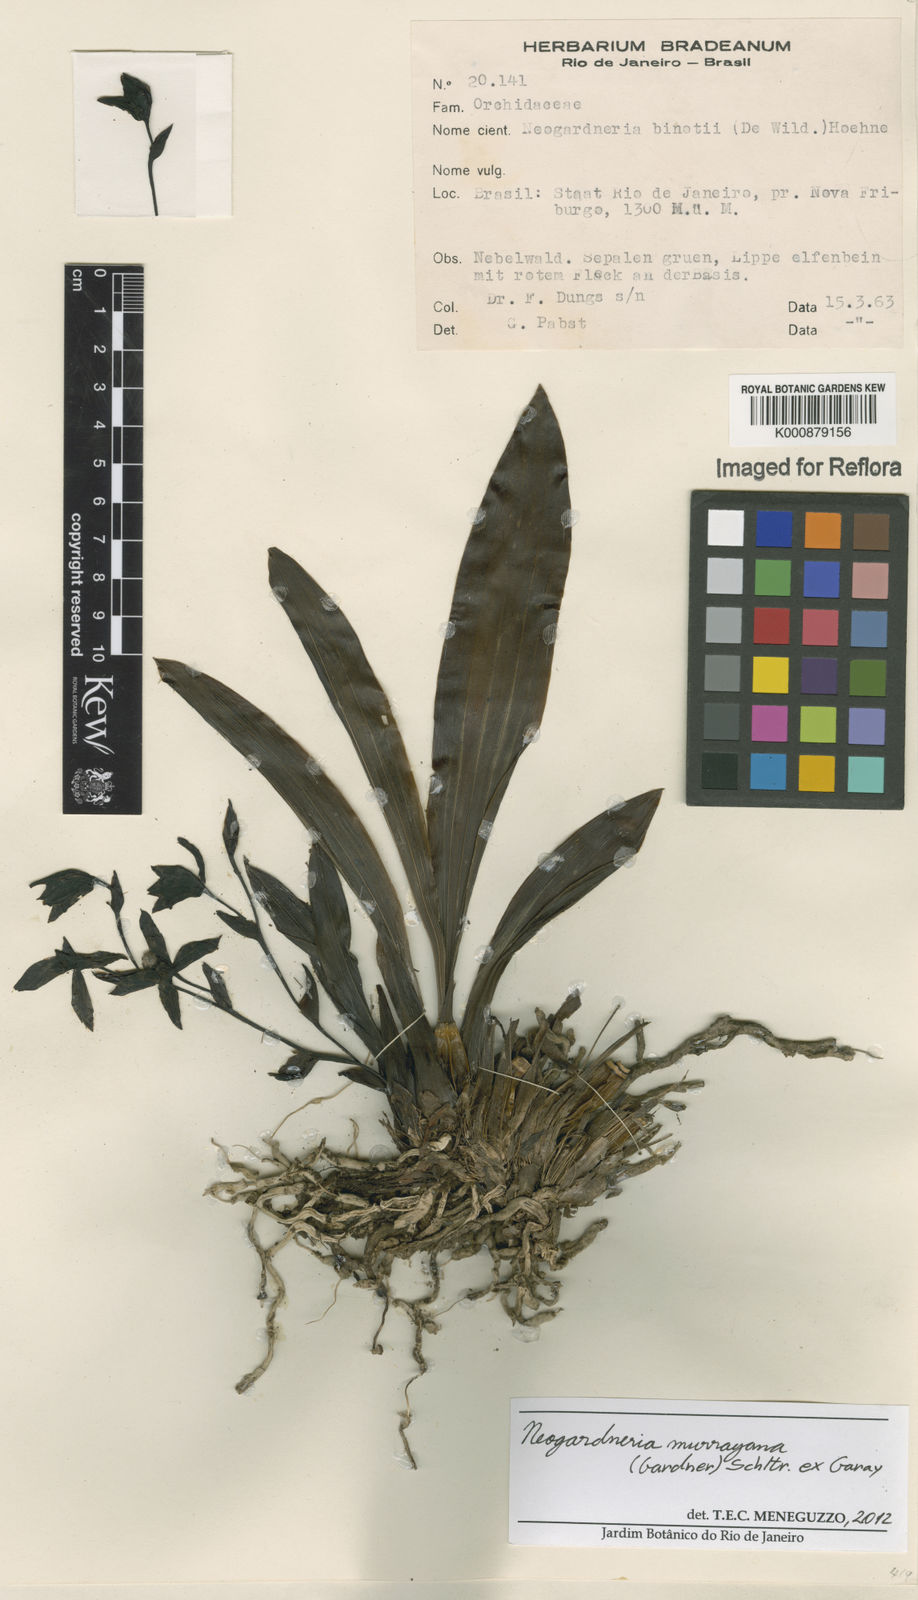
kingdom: Plantae
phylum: Tracheophyta
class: Liliopsida
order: Asparagales
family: Orchidaceae
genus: Neogardneria
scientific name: Neogardneria murrayana
